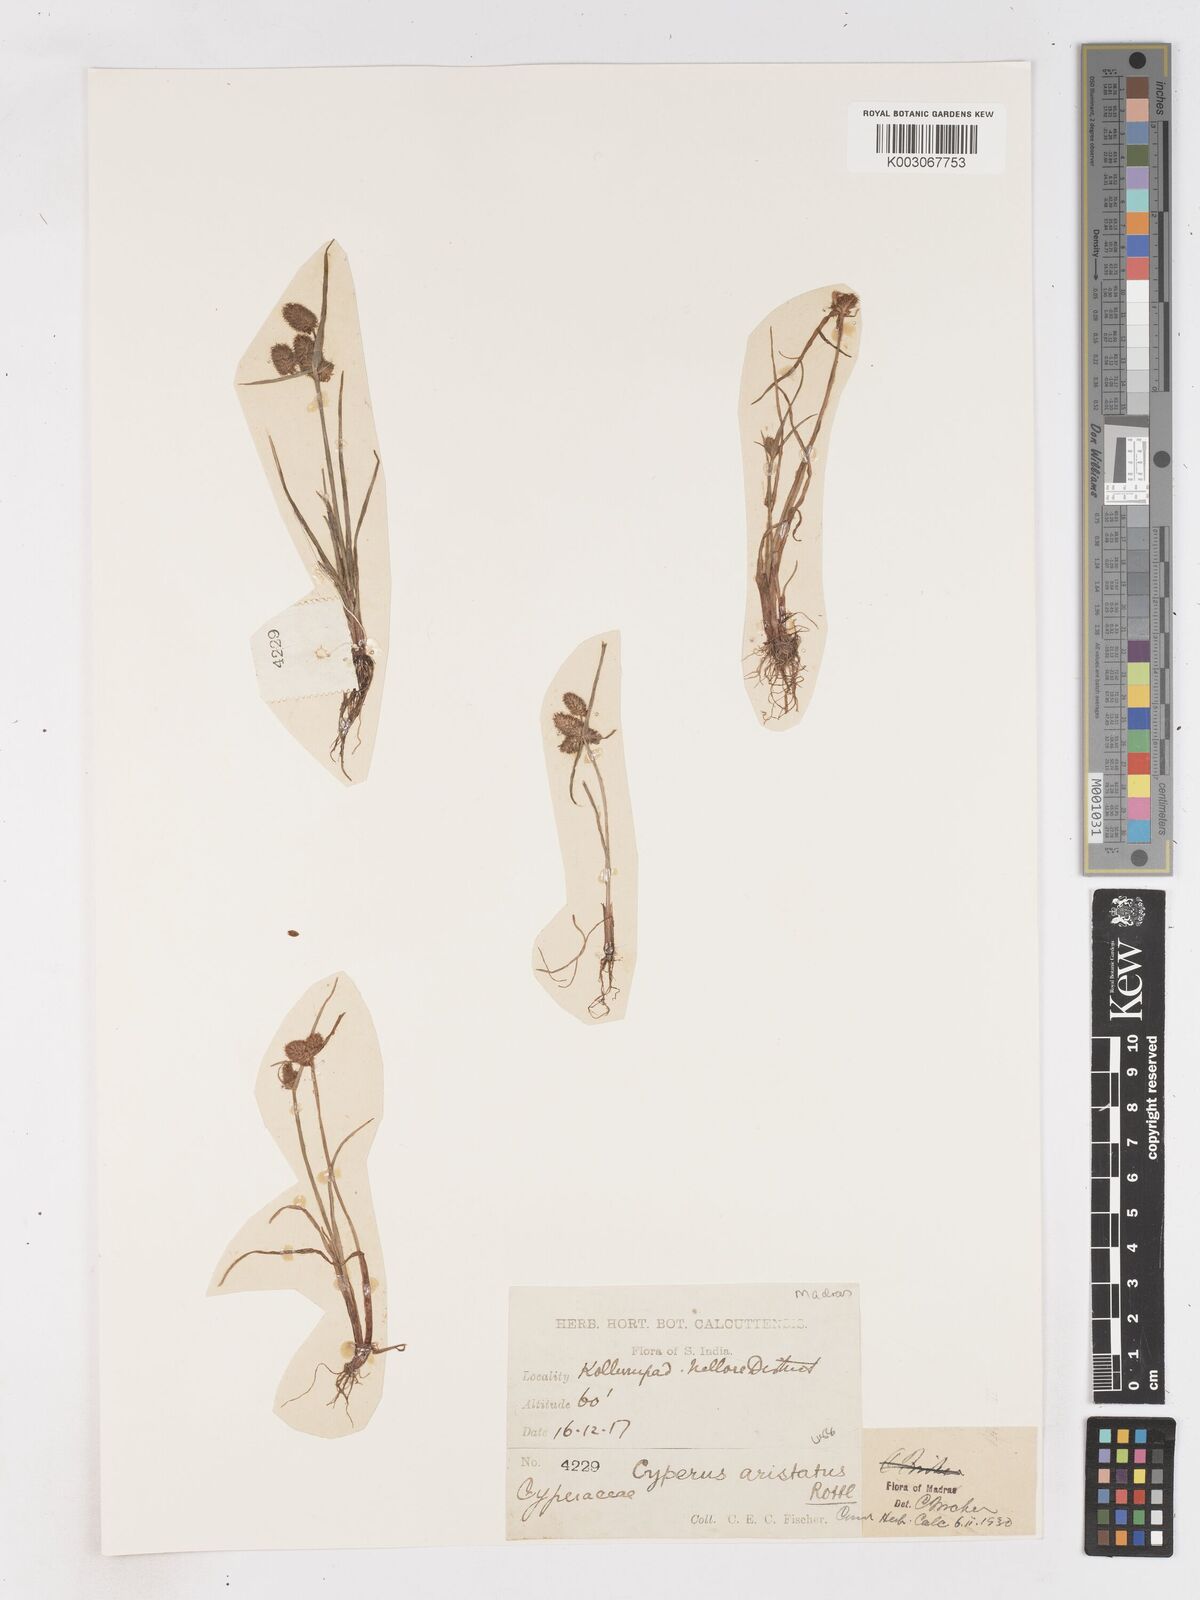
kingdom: Plantae
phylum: Tracheophyta
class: Liliopsida
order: Poales
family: Cyperaceae
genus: Cyperus
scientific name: Cyperus squarrosus
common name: Awned cyperus
